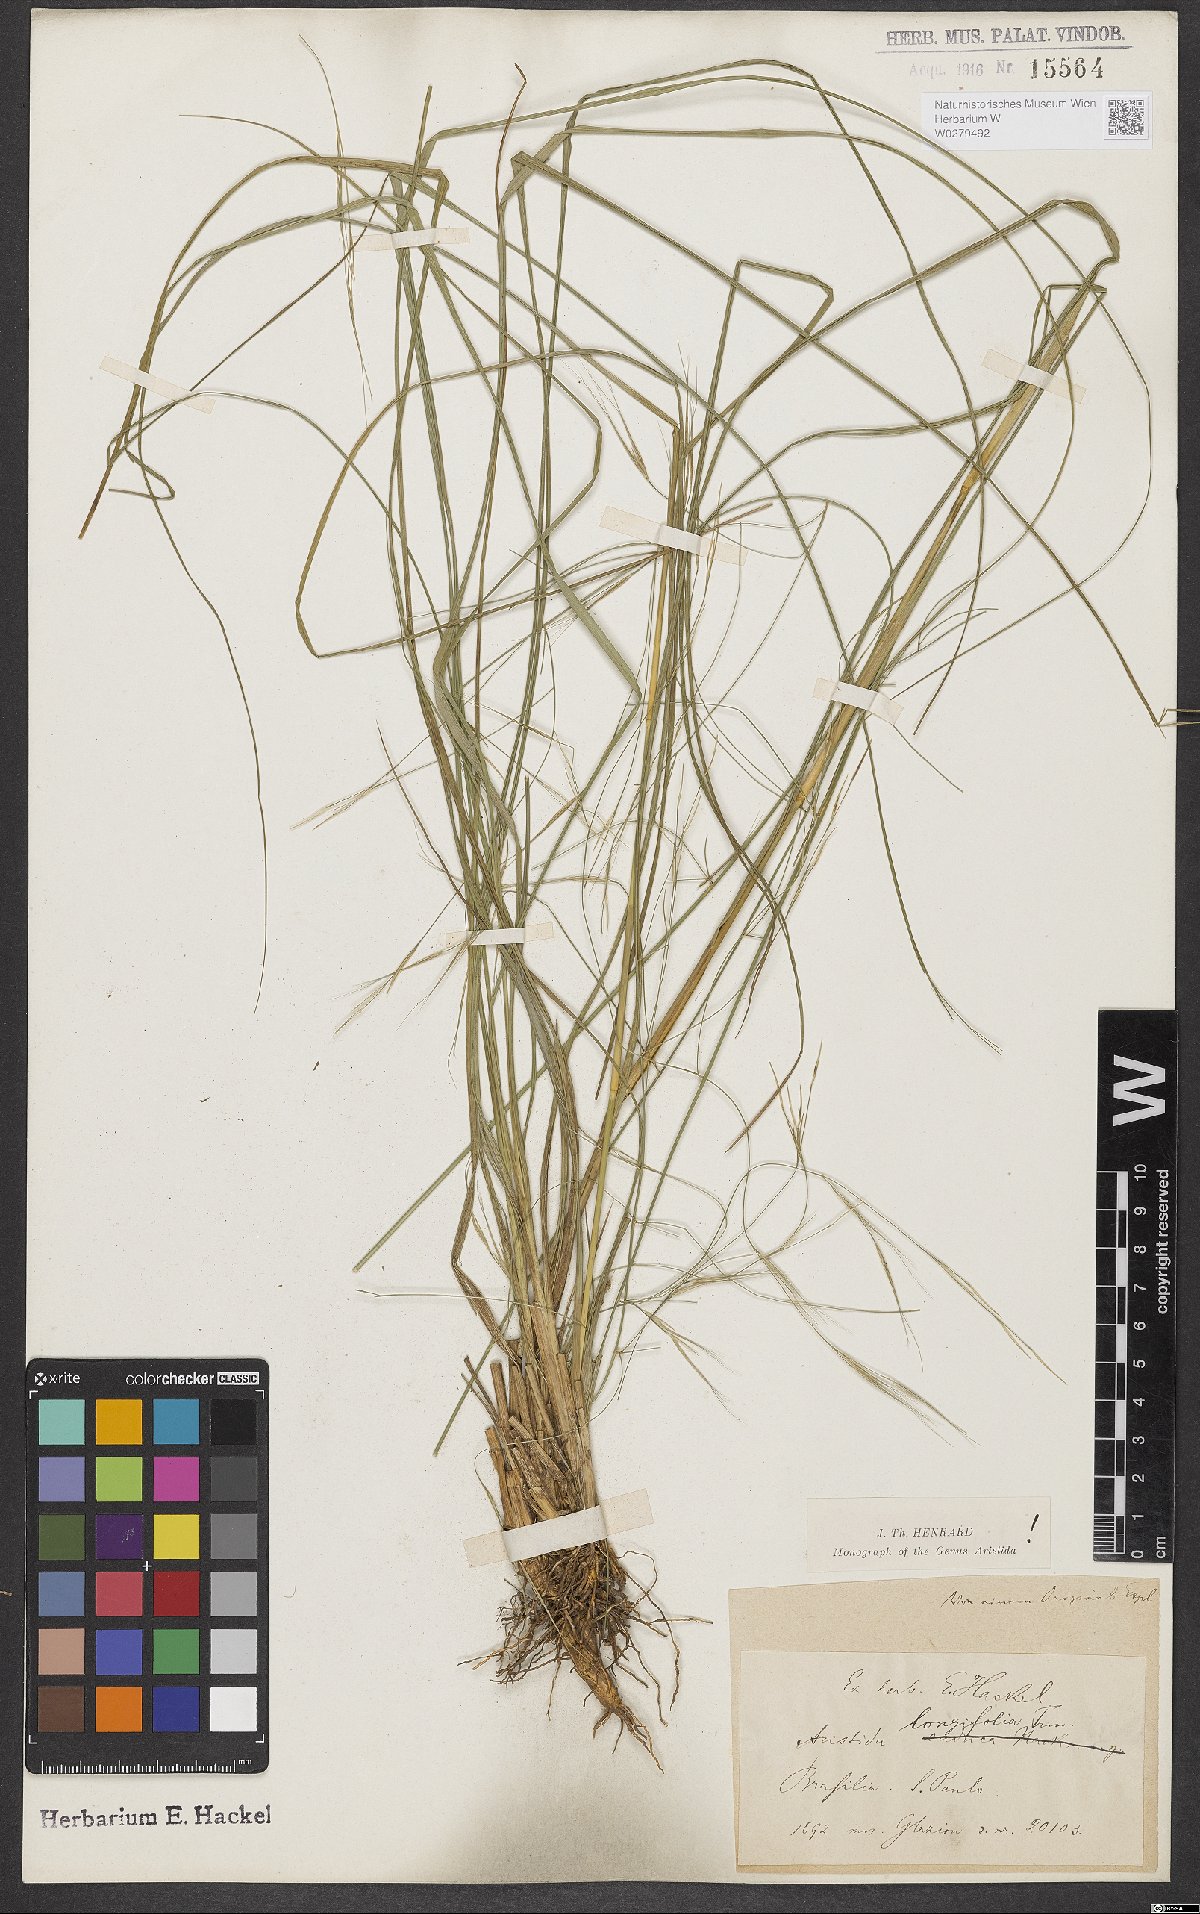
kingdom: Plantae
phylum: Tracheophyta
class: Liliopsida
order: Poales
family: Poaceae
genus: Aristida
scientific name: Aristida longifolia
